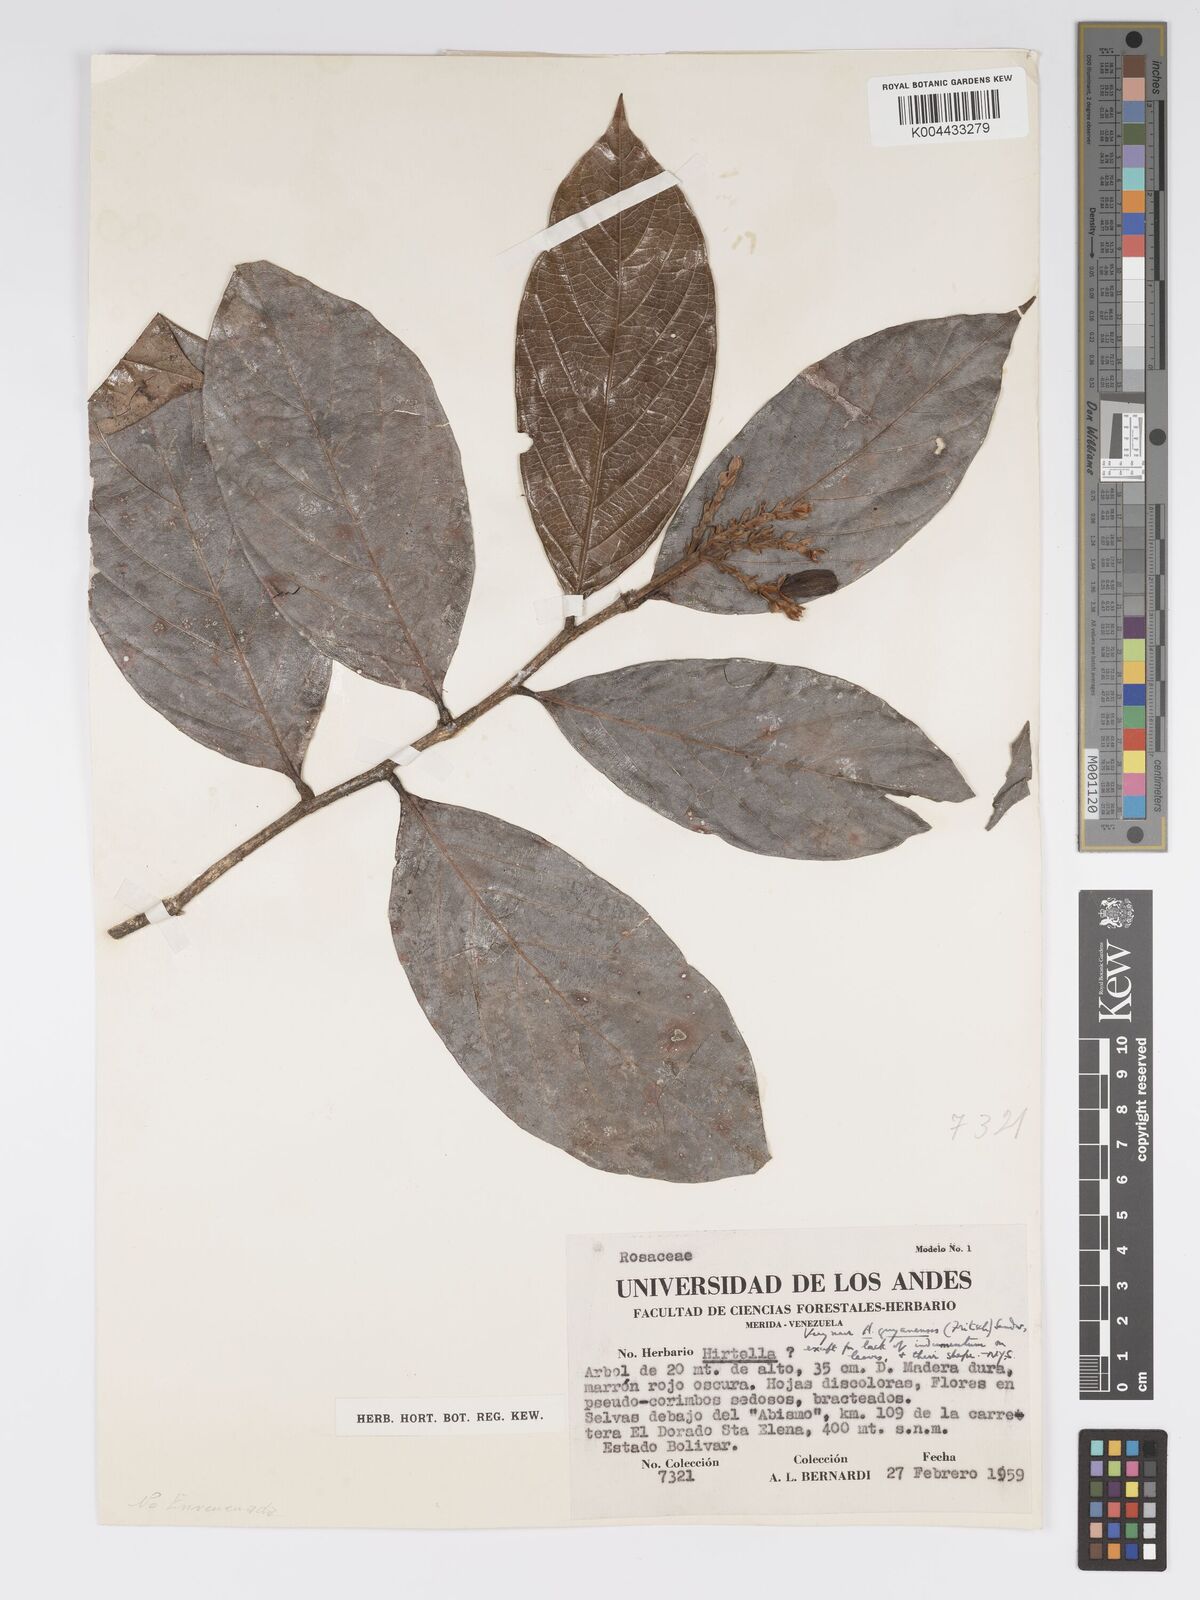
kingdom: Plantae
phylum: Tracheophyta
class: Magnoliopsida
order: Malpighiales
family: Chrysobalanaceae
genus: Hirtella
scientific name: Hirtella guyanensis
